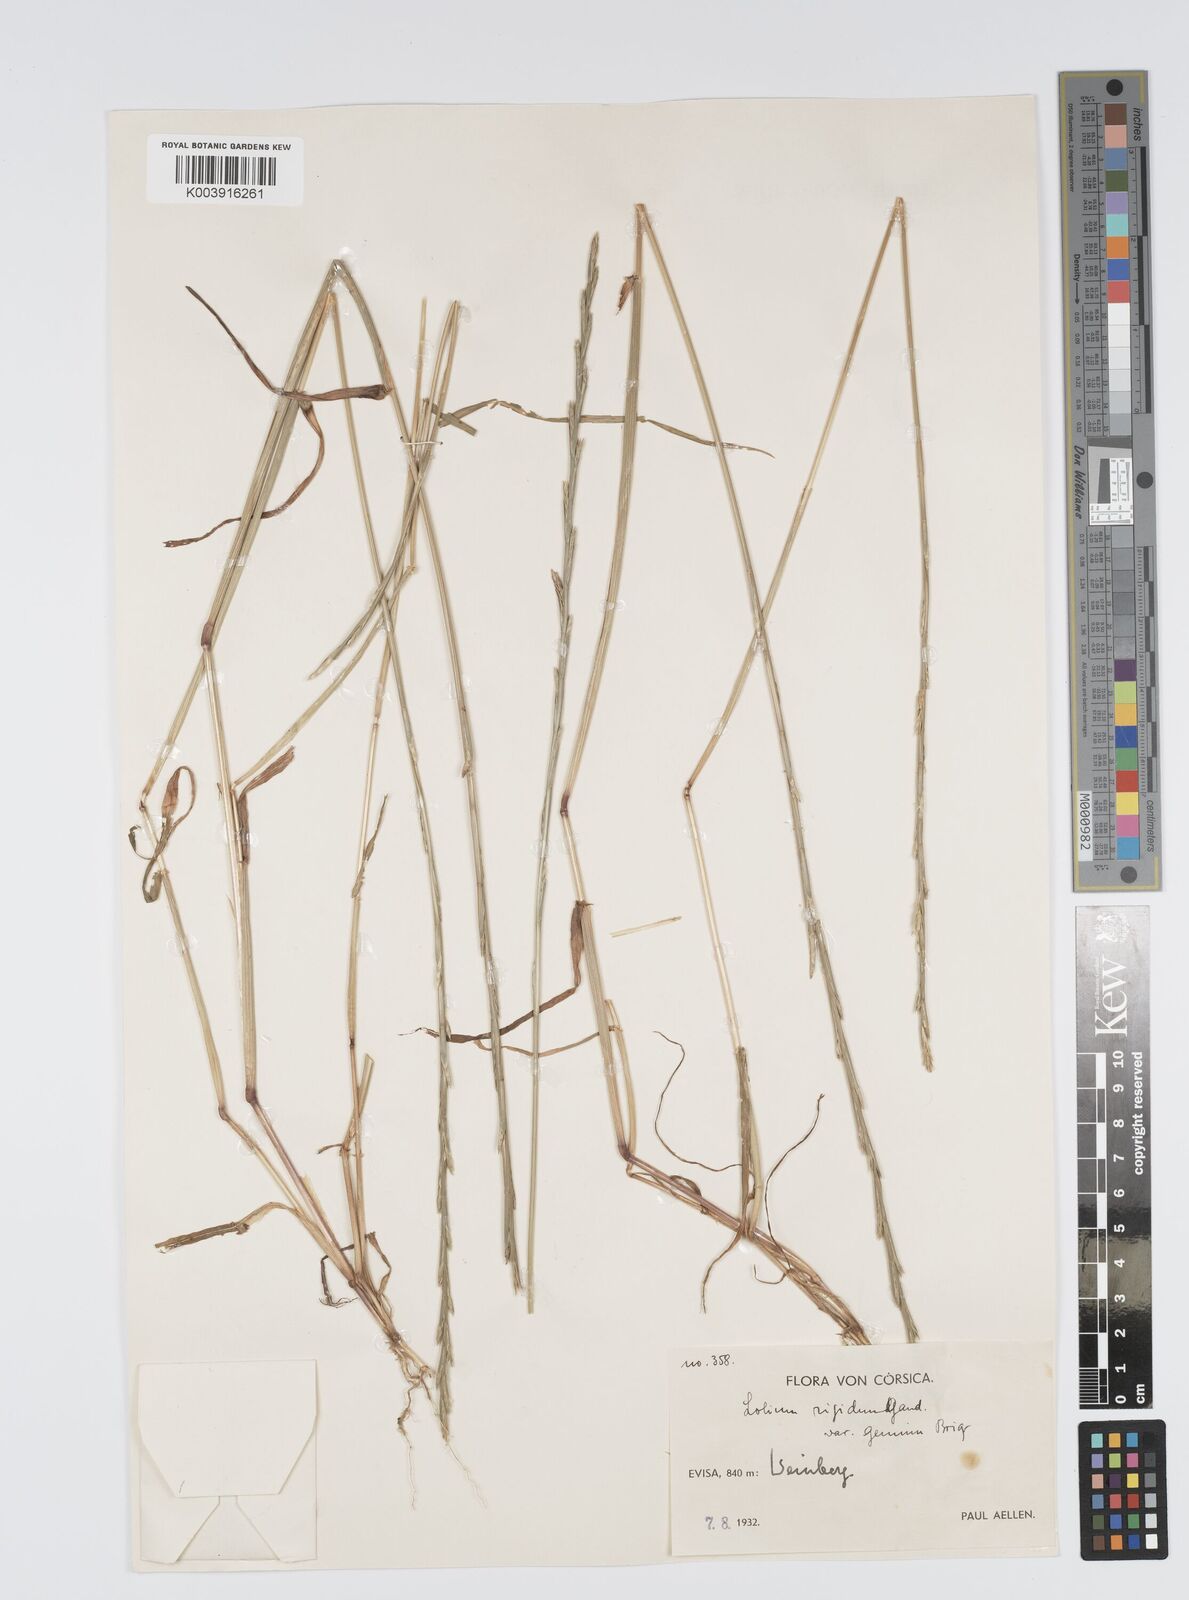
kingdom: Plantae
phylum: Tracheophyta
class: Liliopsida
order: Poales
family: Poaceae
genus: Lolium
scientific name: Lolium rigidum
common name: Wimmera ryegrass
